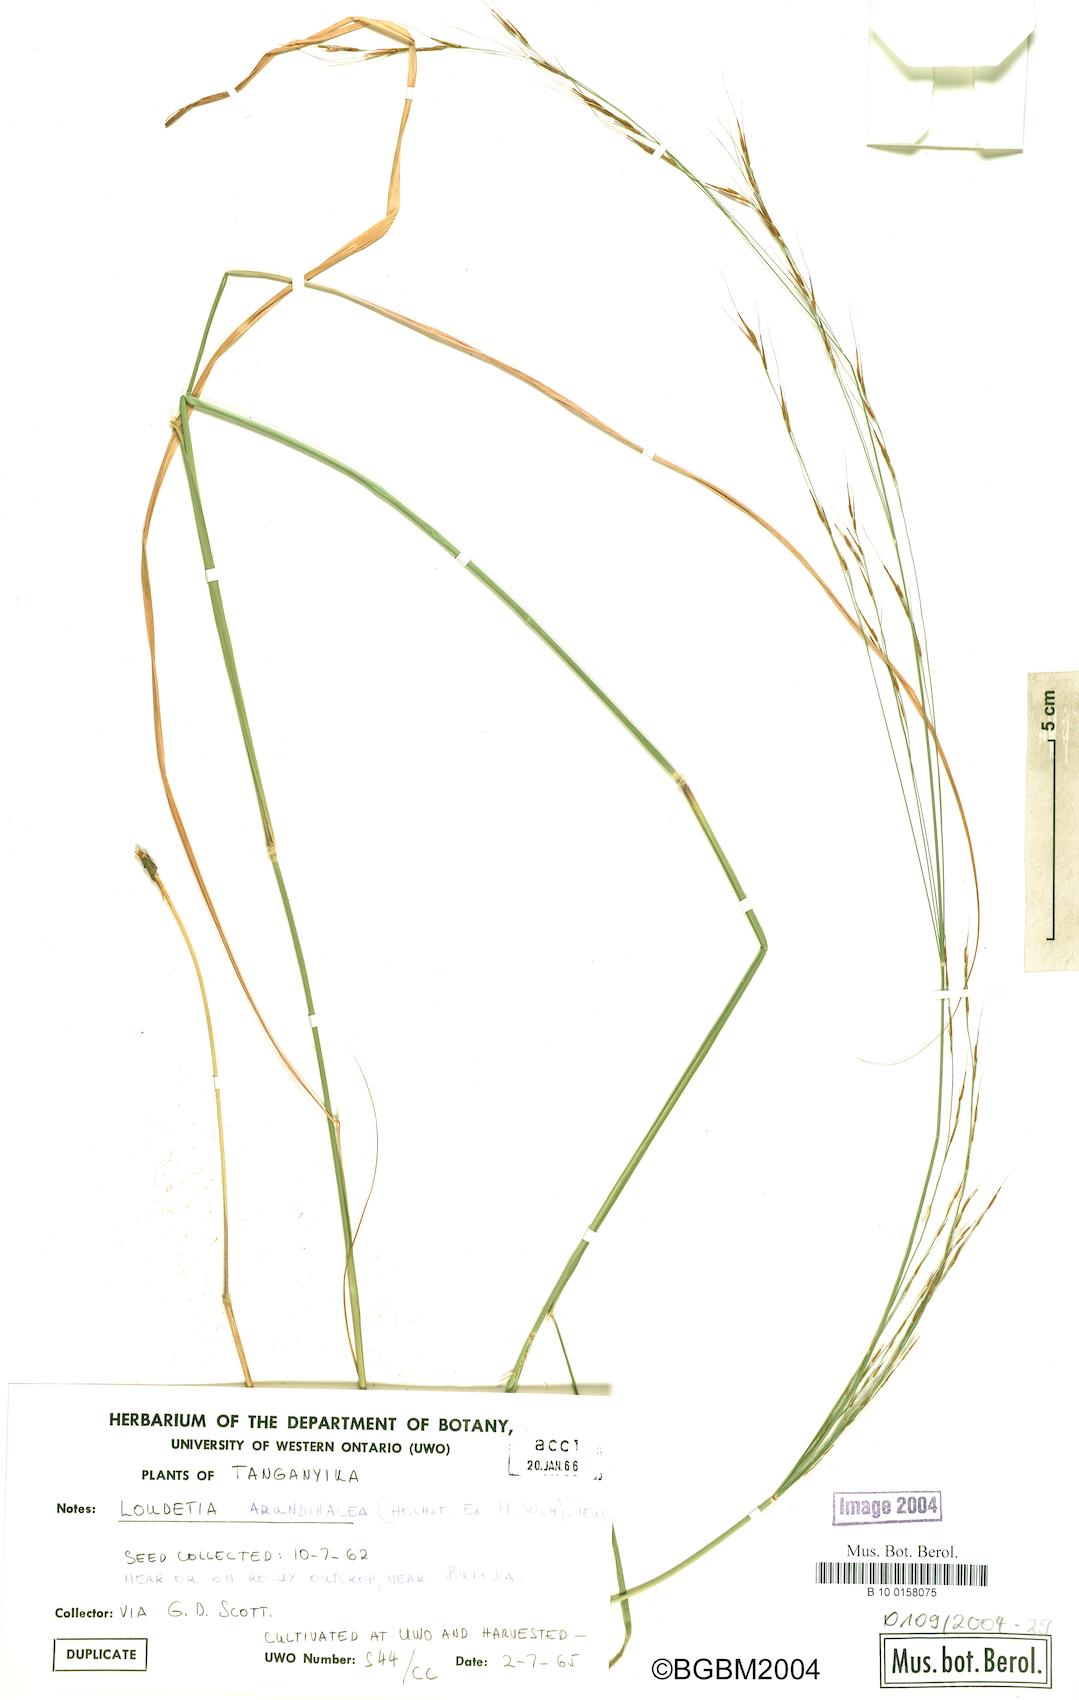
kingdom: Plantae
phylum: Tracheophyta
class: Liliopsida
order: Poales
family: Poaceae
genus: Loudetia
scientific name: Loudetia arundinacea
